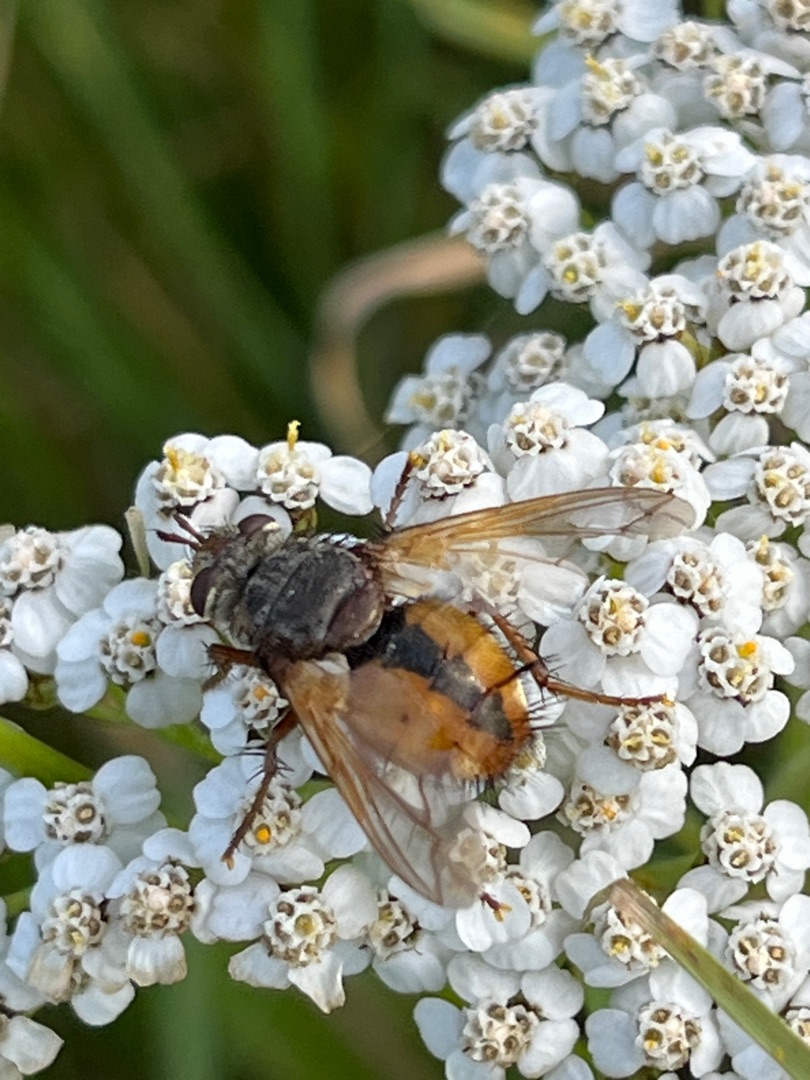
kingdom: Animalia
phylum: Arthropoda
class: Insecta
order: Diptera
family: Tachinidae
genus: Tachina
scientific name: Tachina fera
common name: Mellemfluen oskar
